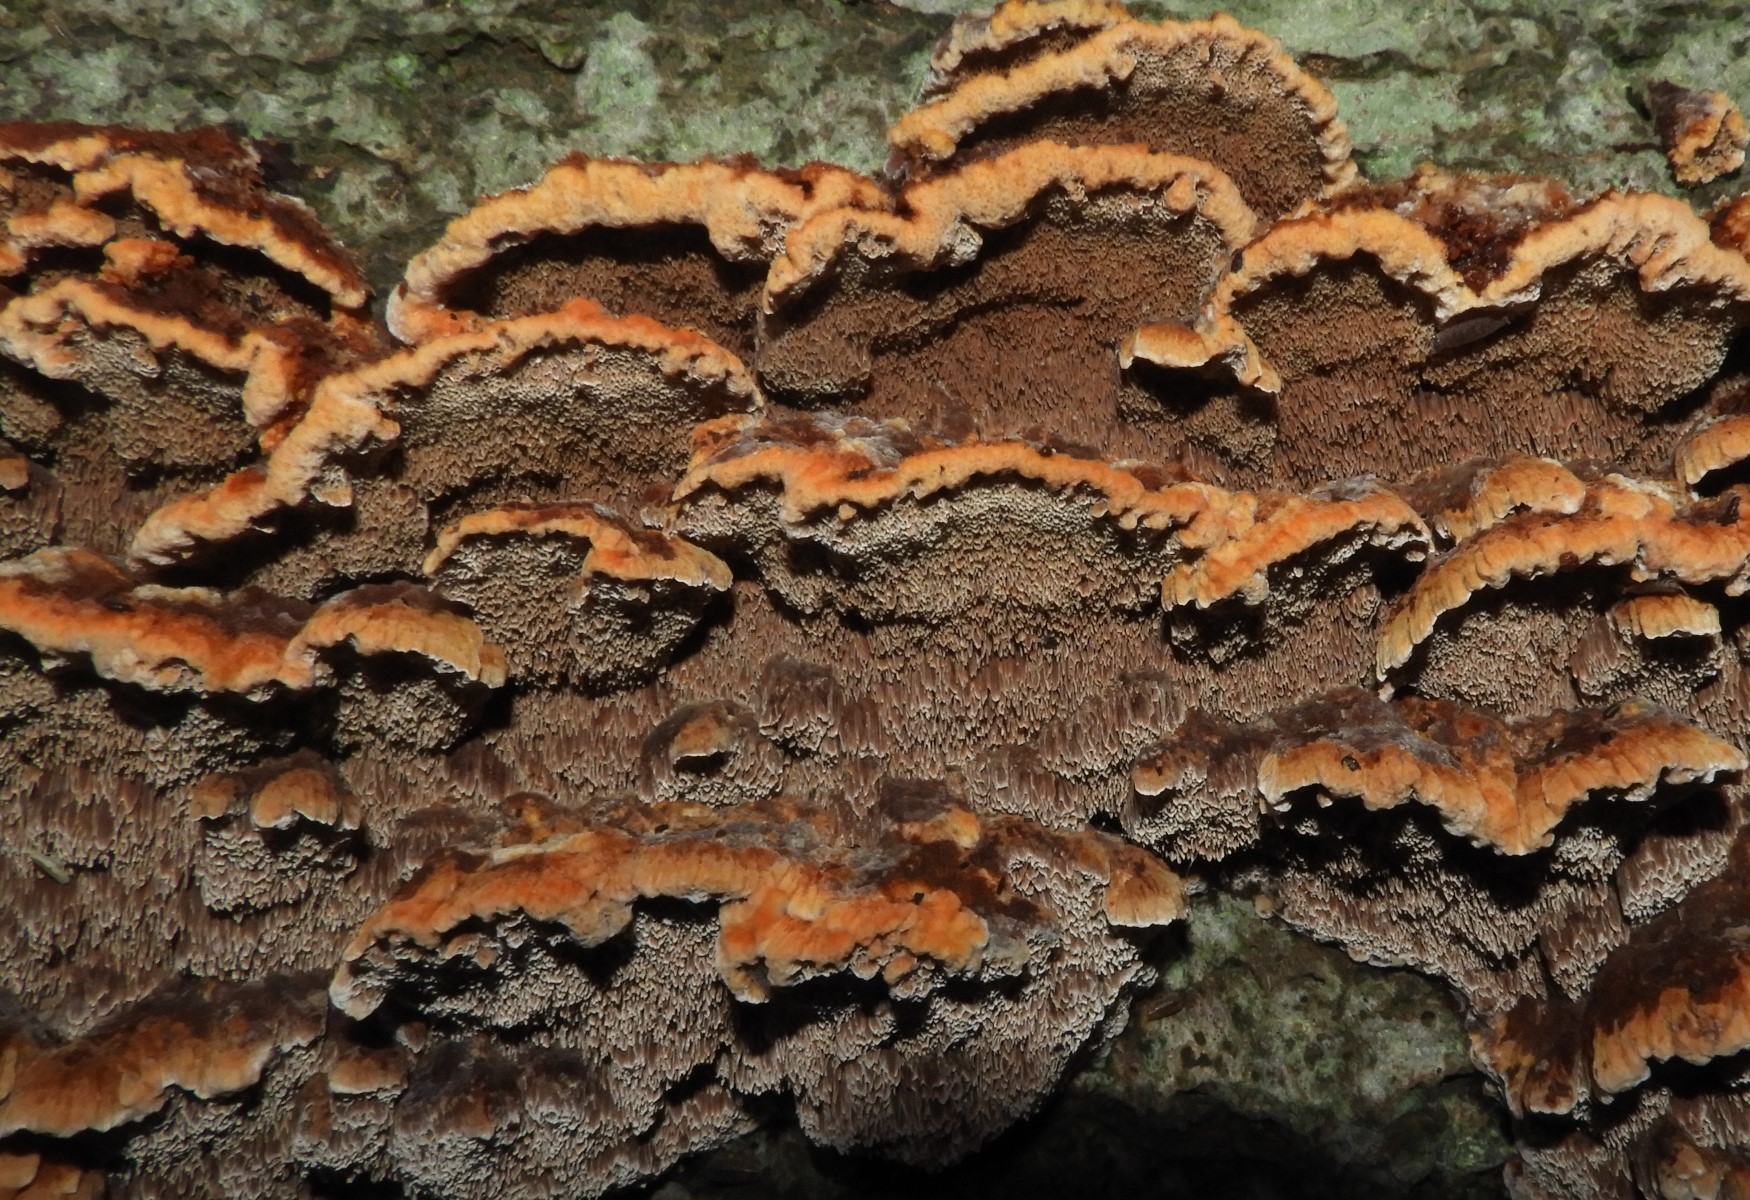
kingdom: Fungi
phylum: Basidiomycota
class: Agaricomycetes
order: Hymenochaetales
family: Hymenochaetaceae
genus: Mensularia
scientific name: Mensularia nodulosa
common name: bøge-spejlporesvamp
